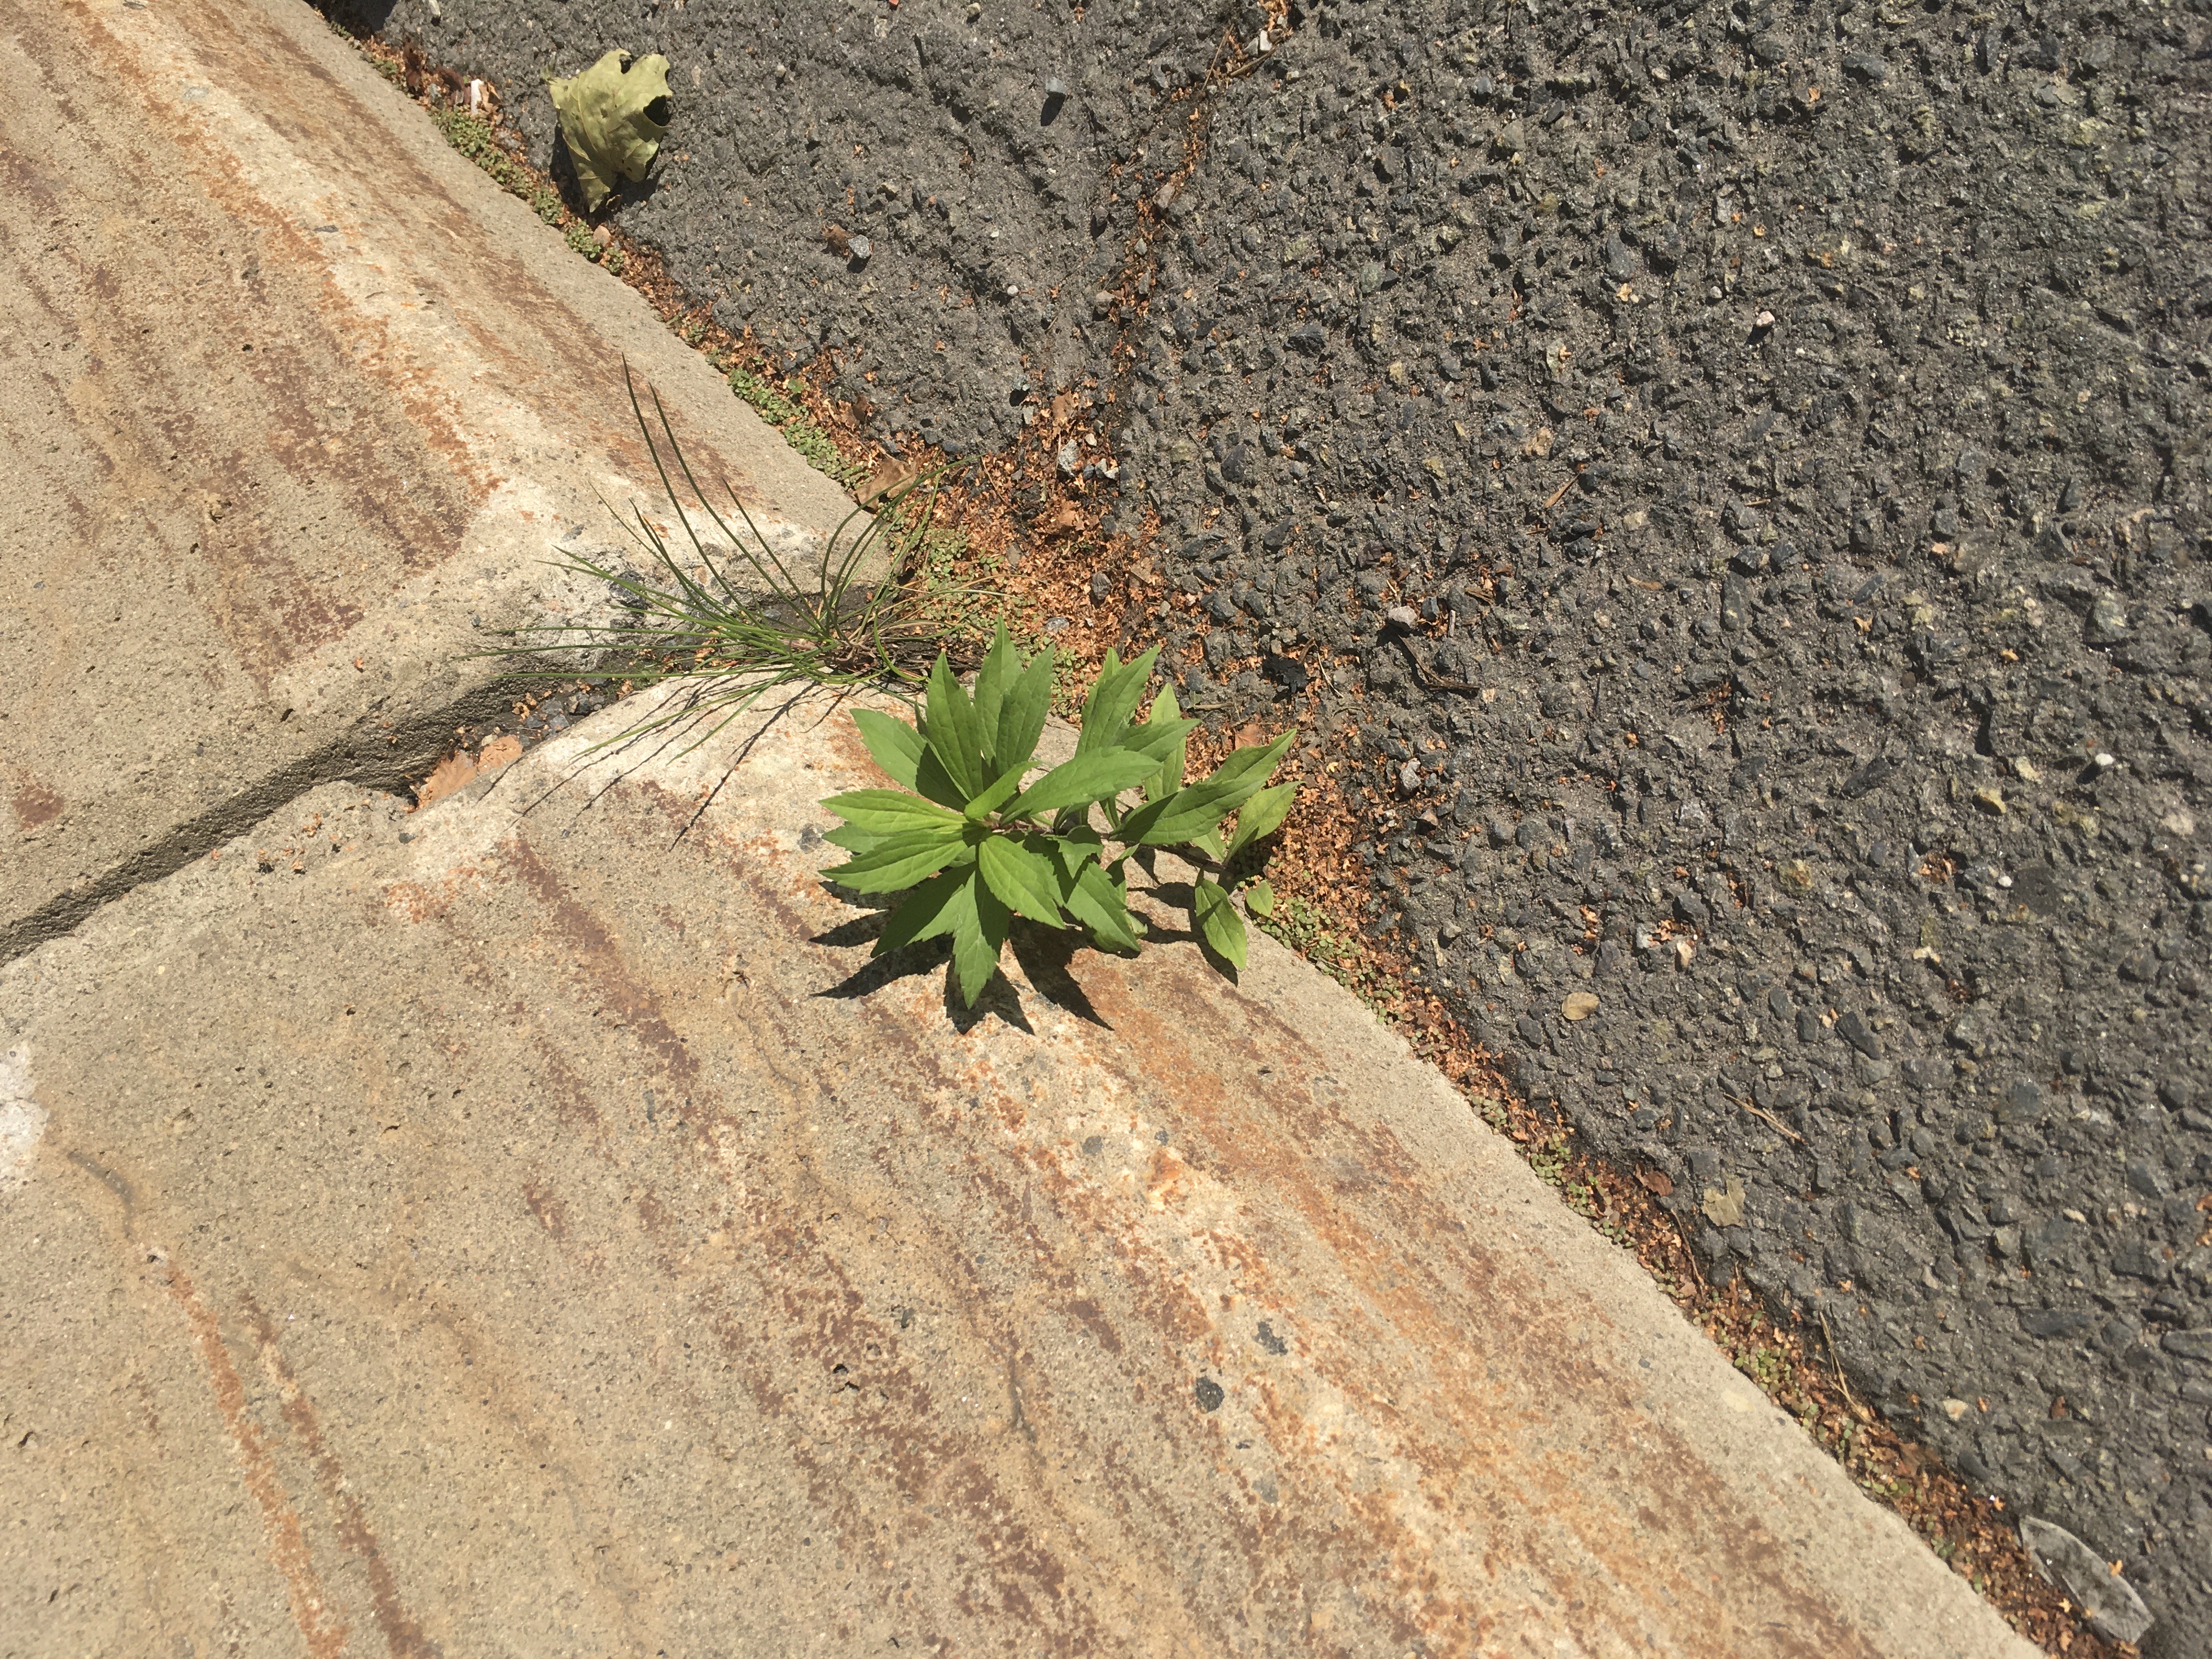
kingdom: Plantae
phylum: Tracheophyta
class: Magnoliopsida
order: Asterales
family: Asteraceae
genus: Solidago
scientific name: Solidago canadensis
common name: kanadagullris
